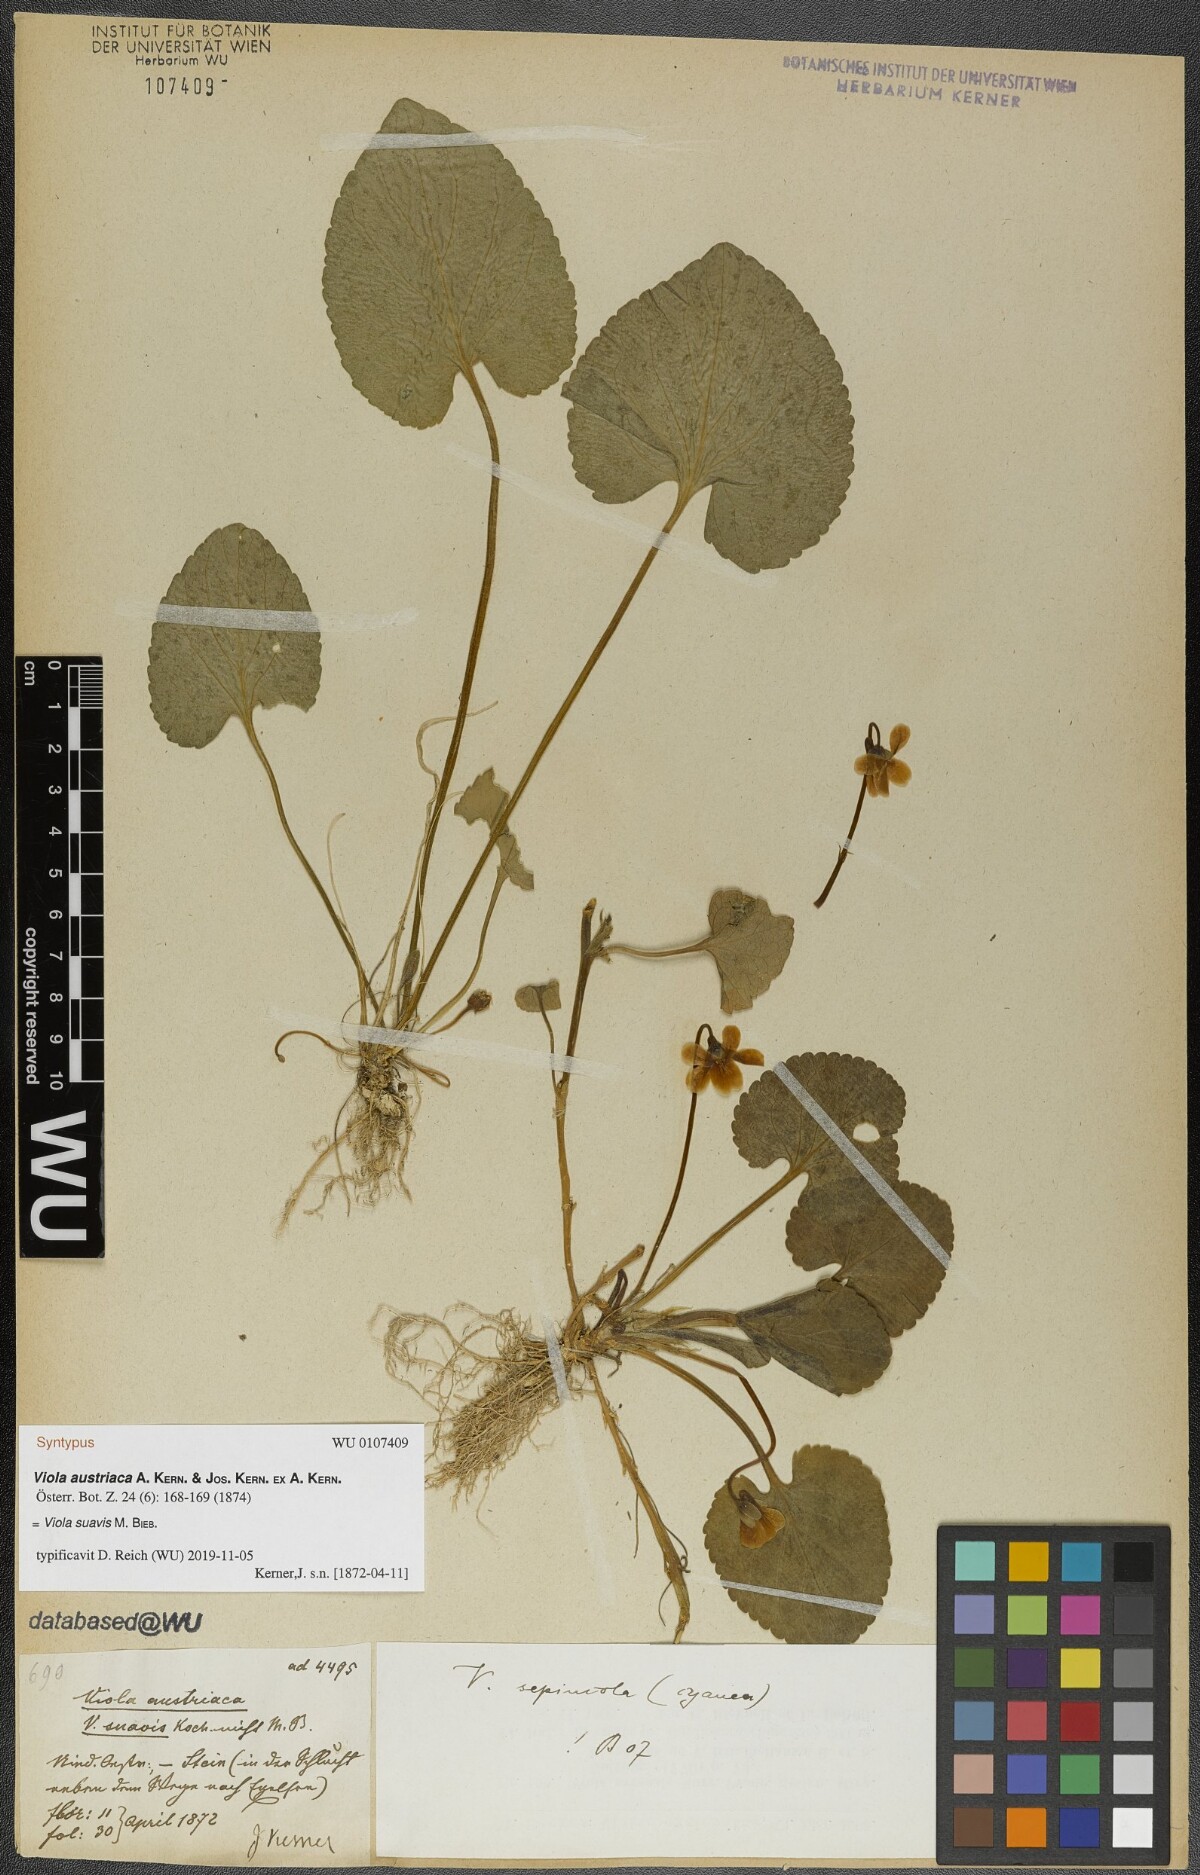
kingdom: Plantae
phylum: Tracheophyta
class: Magnoliopsida
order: Malpighiales
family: Violaceae
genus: Viola
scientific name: Viola suavis
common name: Russian violet
